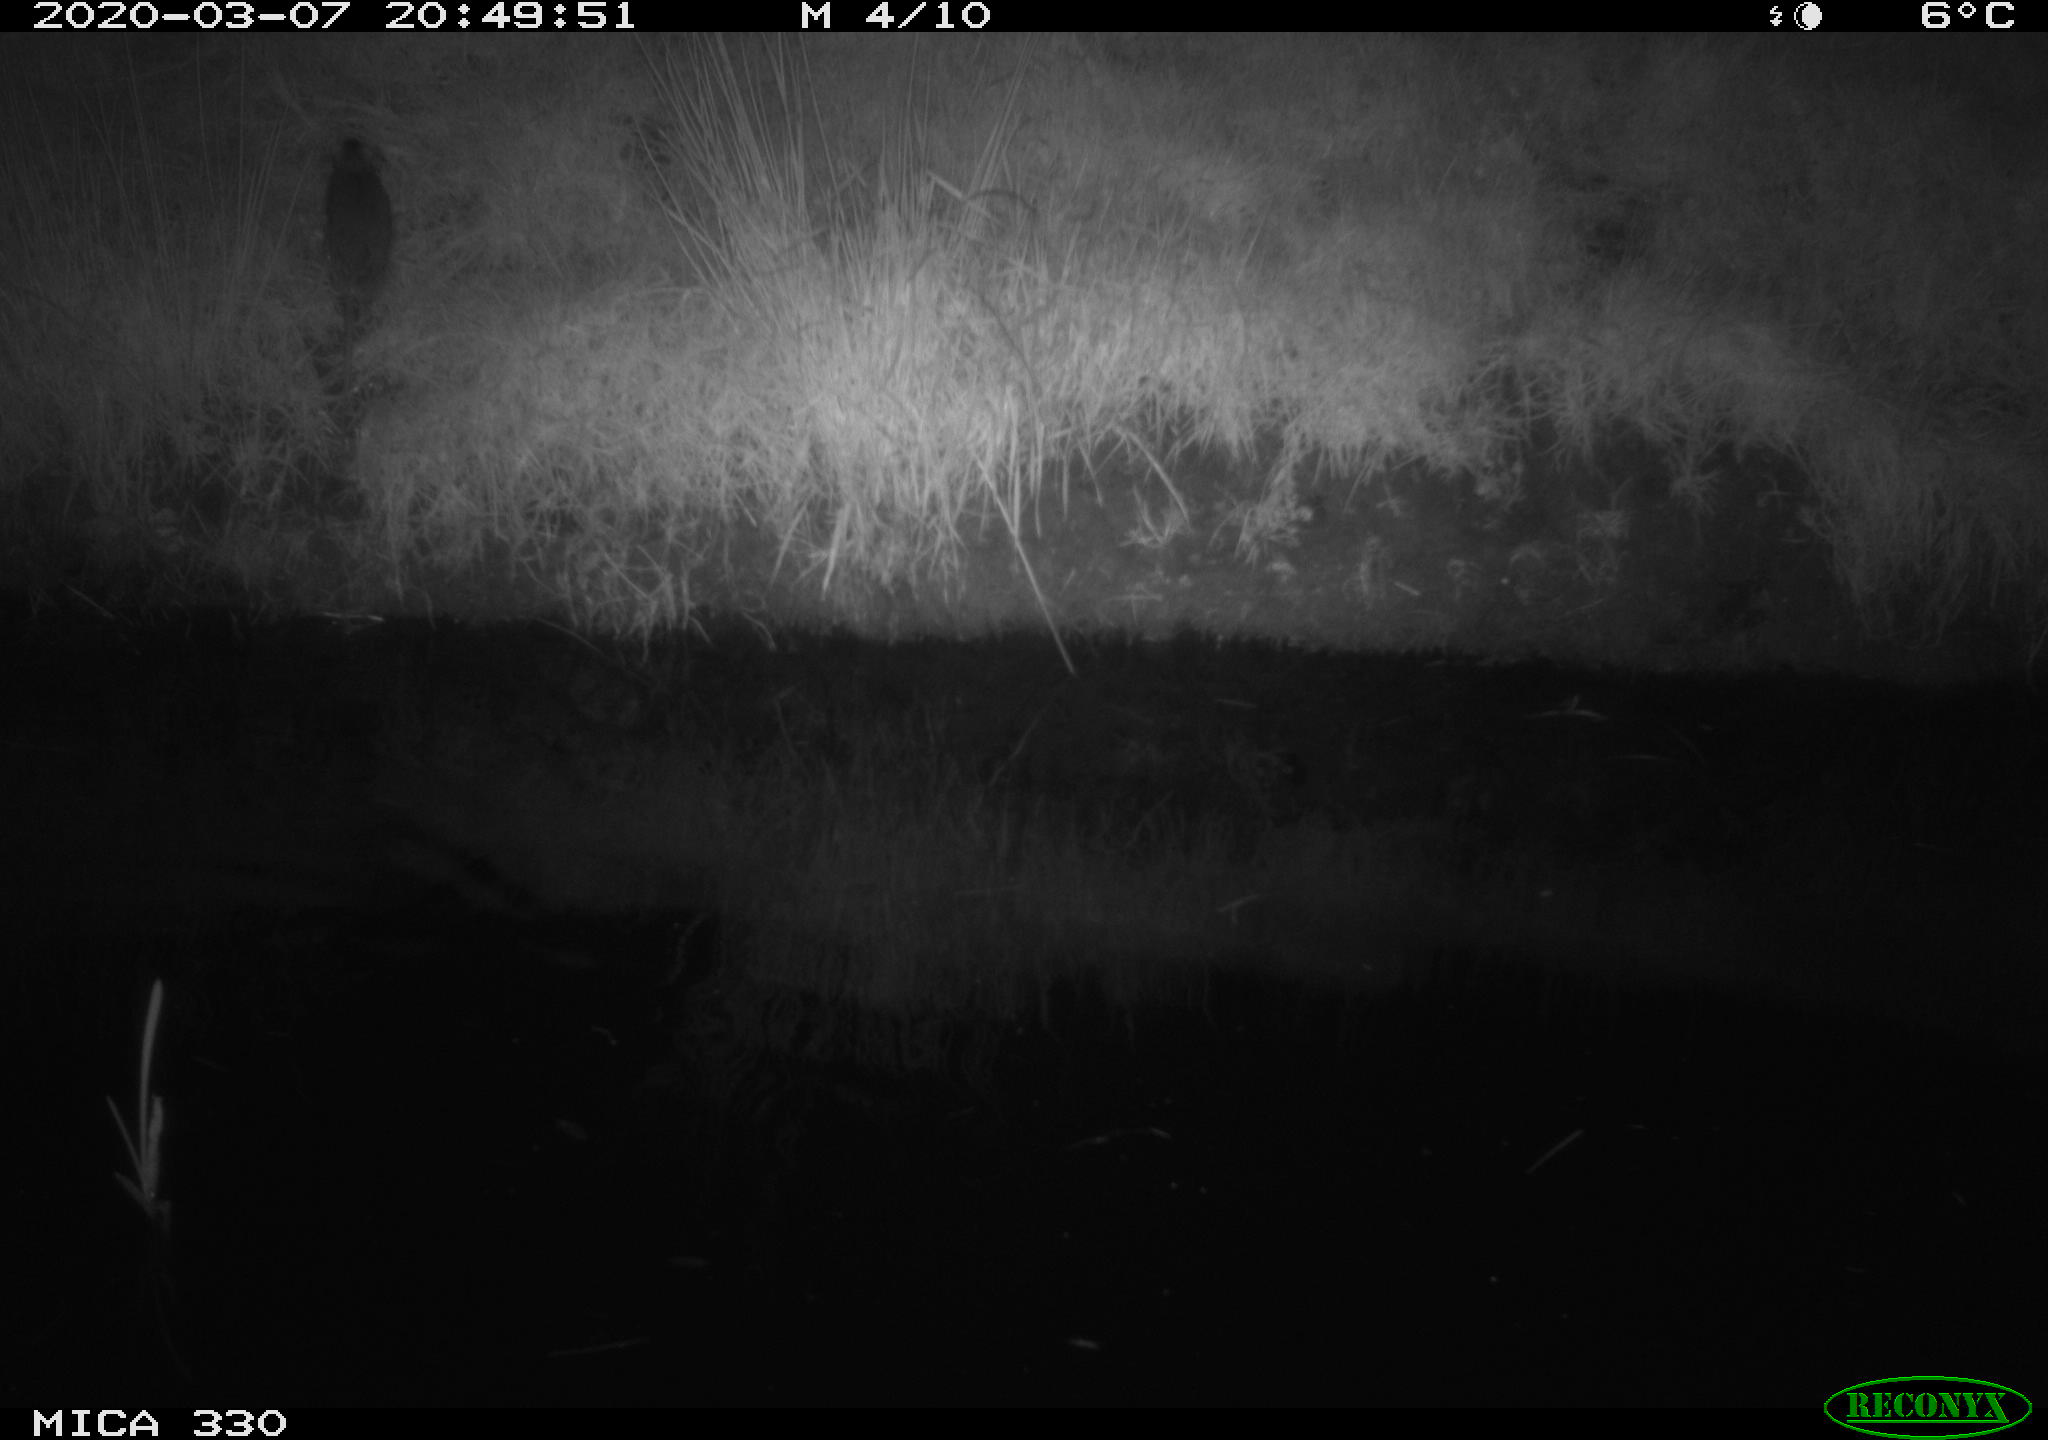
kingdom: Animalia
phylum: Chordata
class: Mammalia
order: Rodentia
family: Muridae
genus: Rattus
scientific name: Rattus norvegicus
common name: Brown rat
